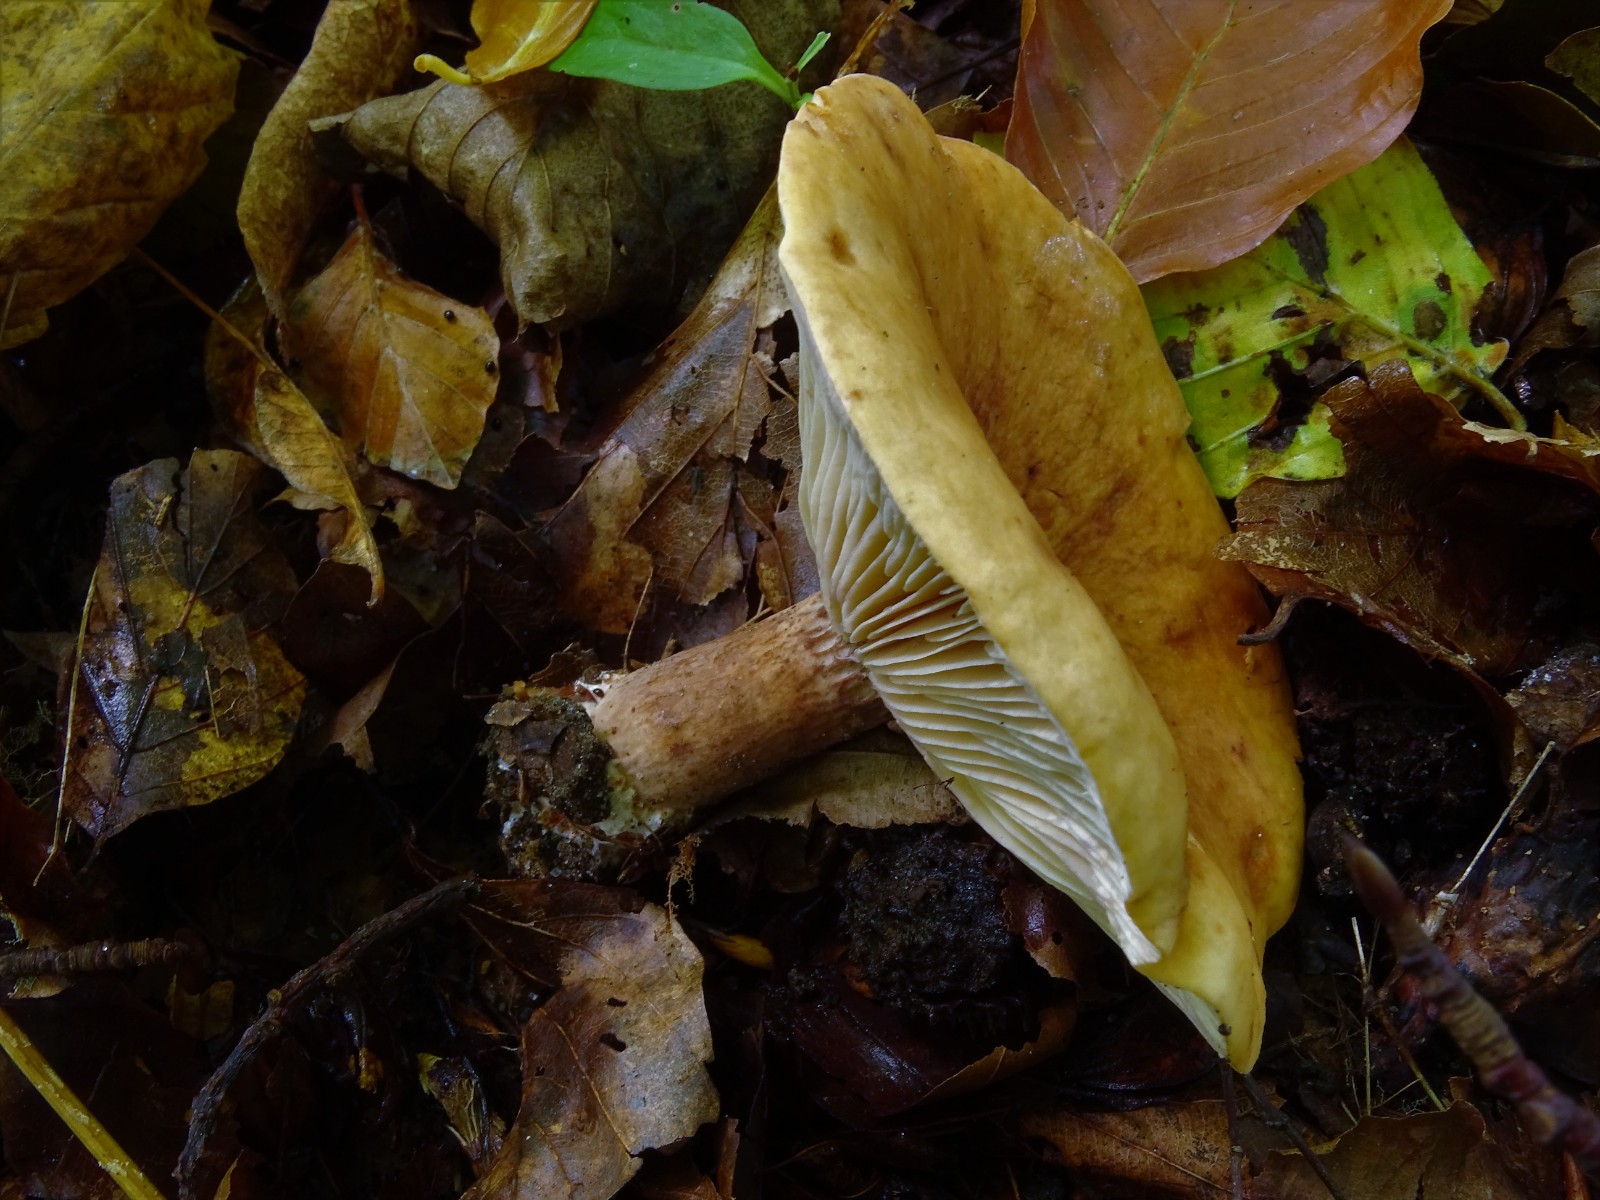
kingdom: Fungi
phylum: Basidiomycota
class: Agaricomycetes
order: Russulales
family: Russulaceae
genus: Lactarius
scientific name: Lactarius rubrocinctus
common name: halsbånd-mælkehat
